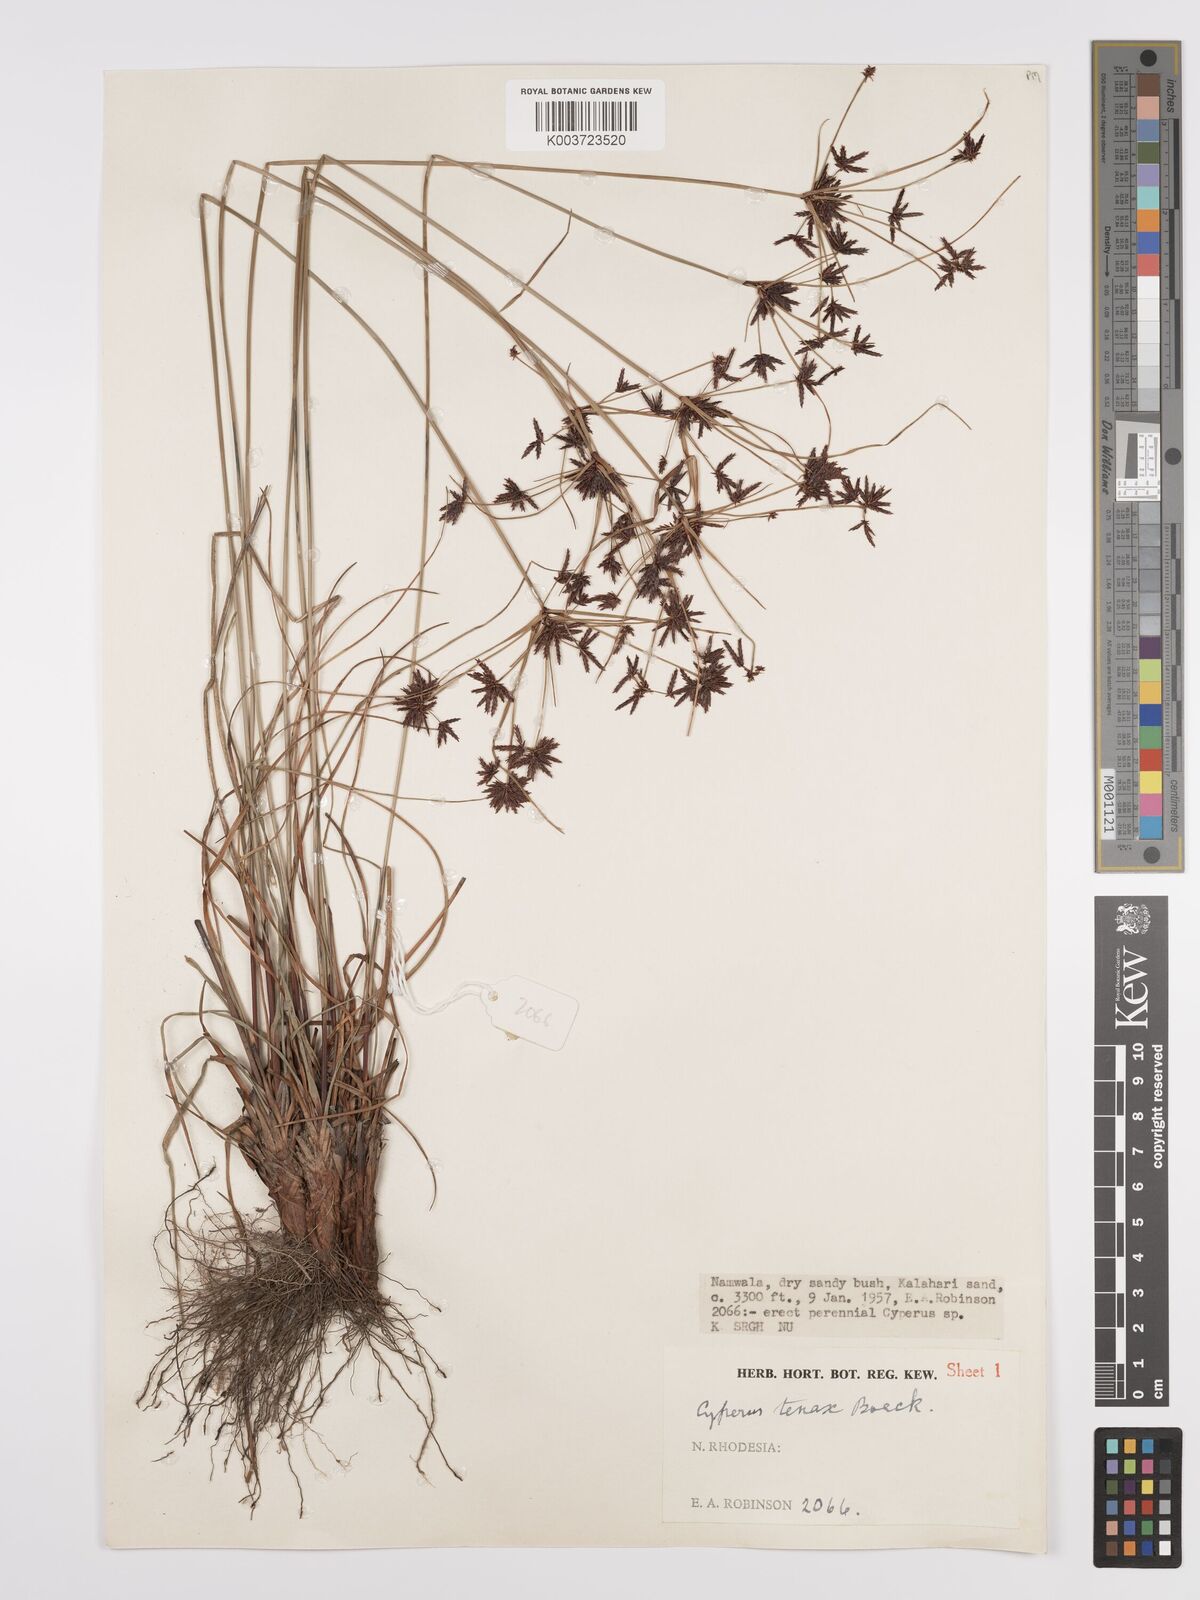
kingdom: Plantae
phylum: Tracheophyta
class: Liliopsida
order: Poales
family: Cyperaceae
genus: Cyperus
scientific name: Cyperus tenax
